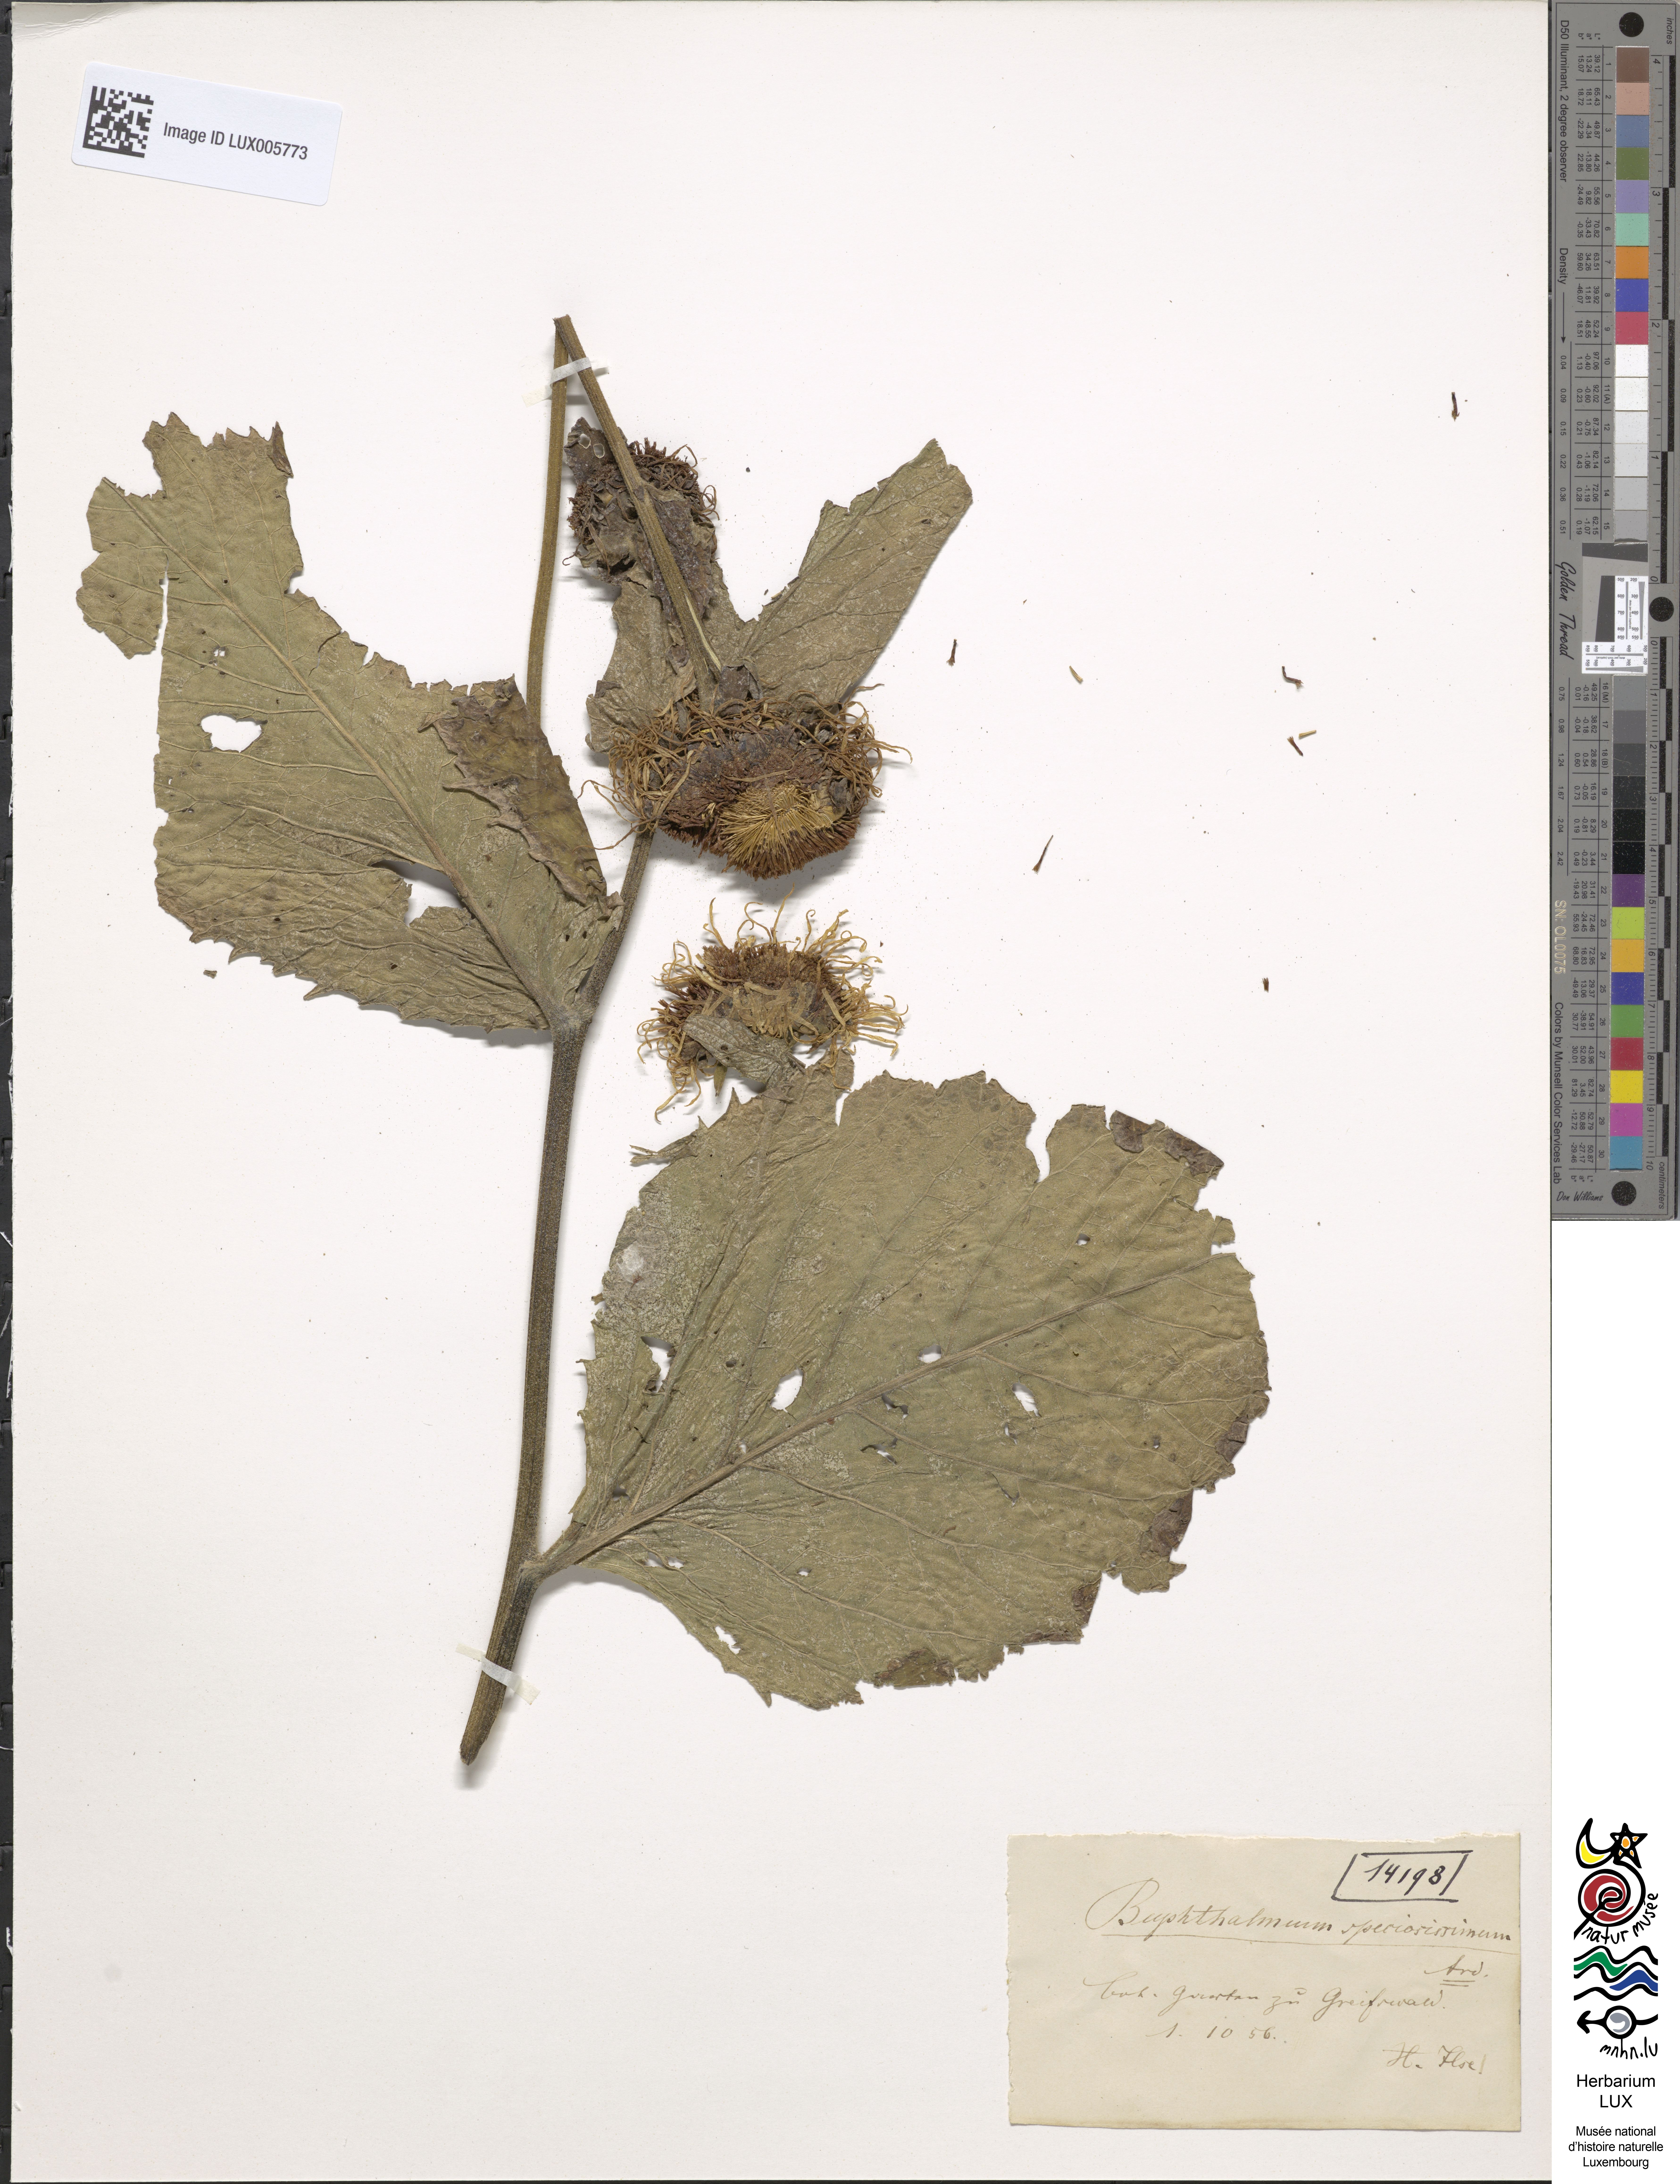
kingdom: Plantae
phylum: Tracheophyta
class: Magnoliopsida
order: Asterales
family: Asteraceae
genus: Buphthalmum
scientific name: Buphthalmum speciosissimum
